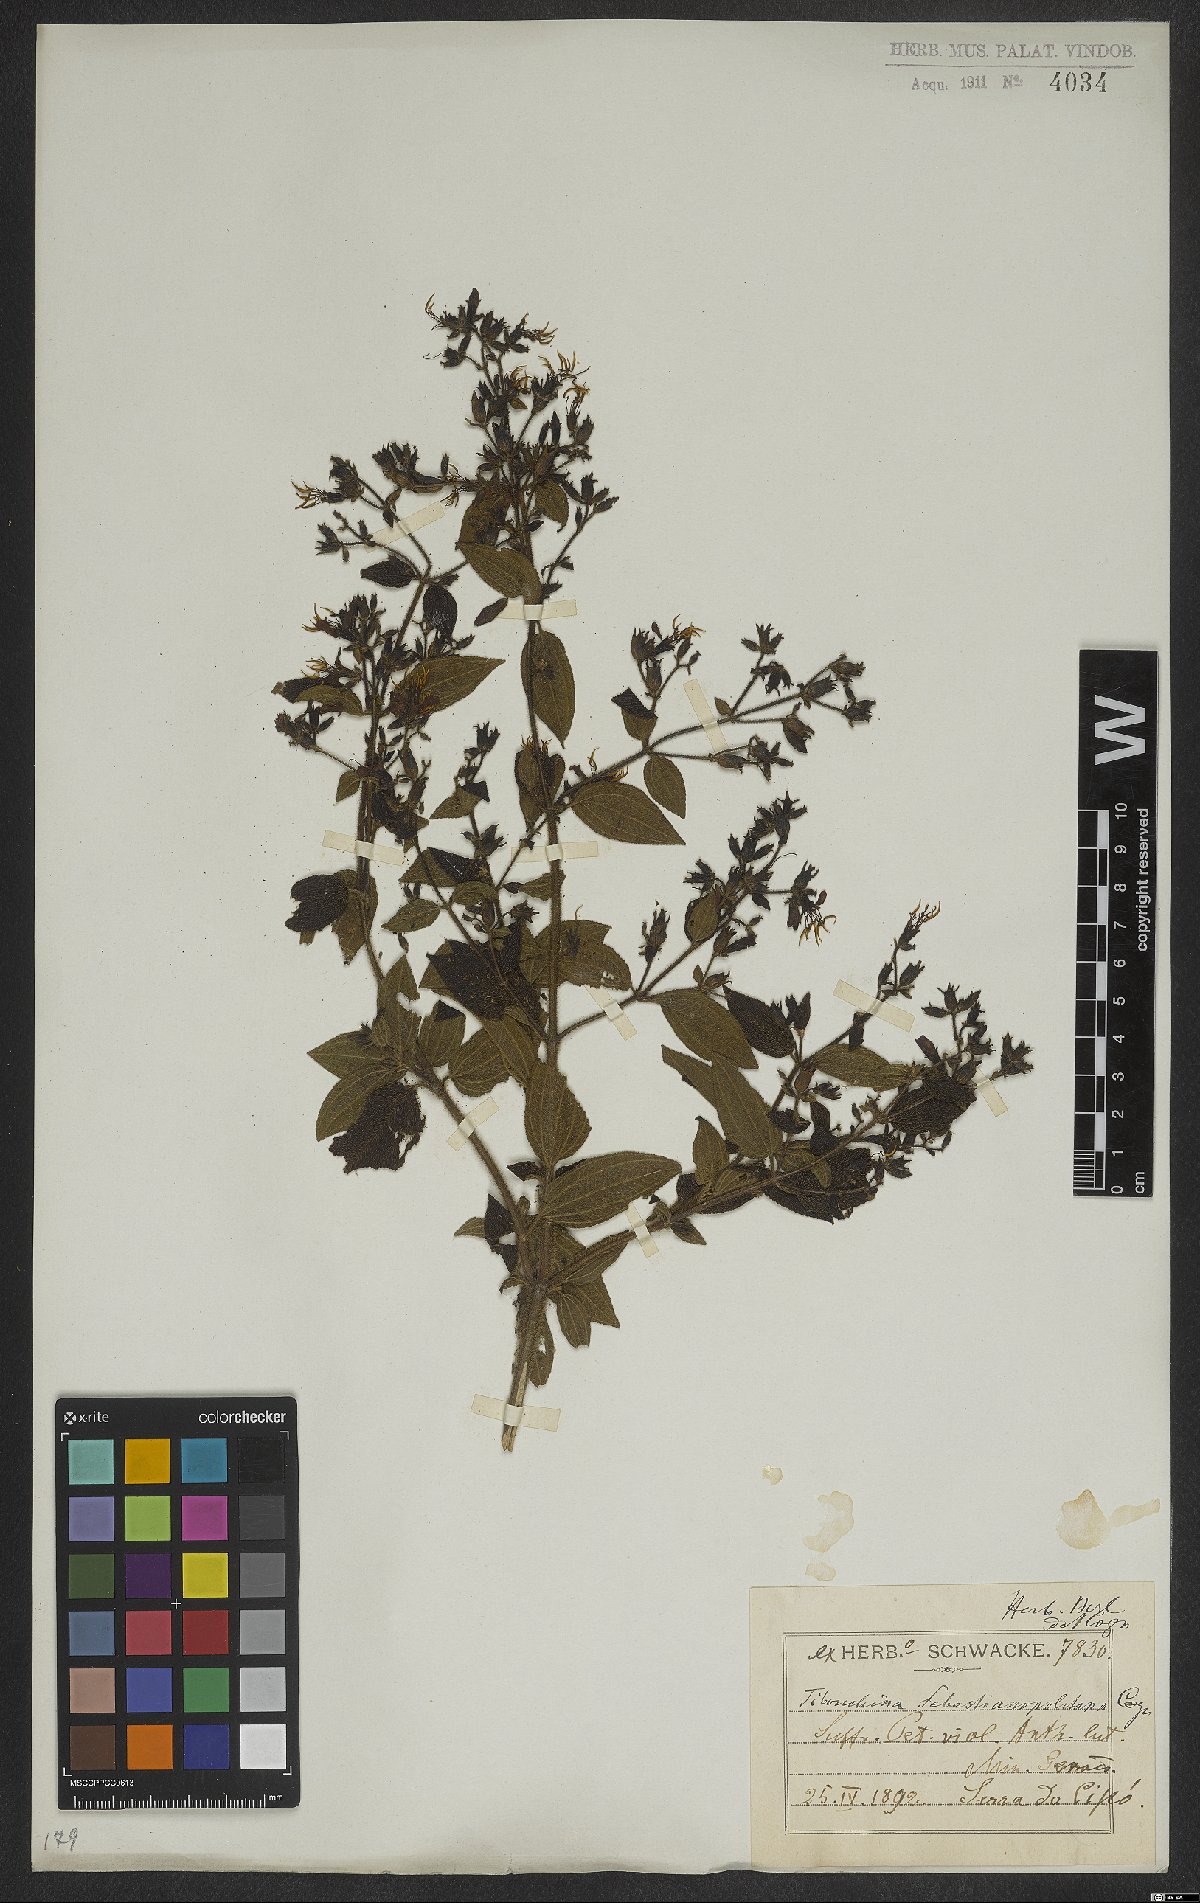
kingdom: Plantae
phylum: Tracheophyta
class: Magnoliopsida
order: Myrtales
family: Melastomataceae
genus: Chaetogastra
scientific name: Chaetogastra sebastianopolitana
